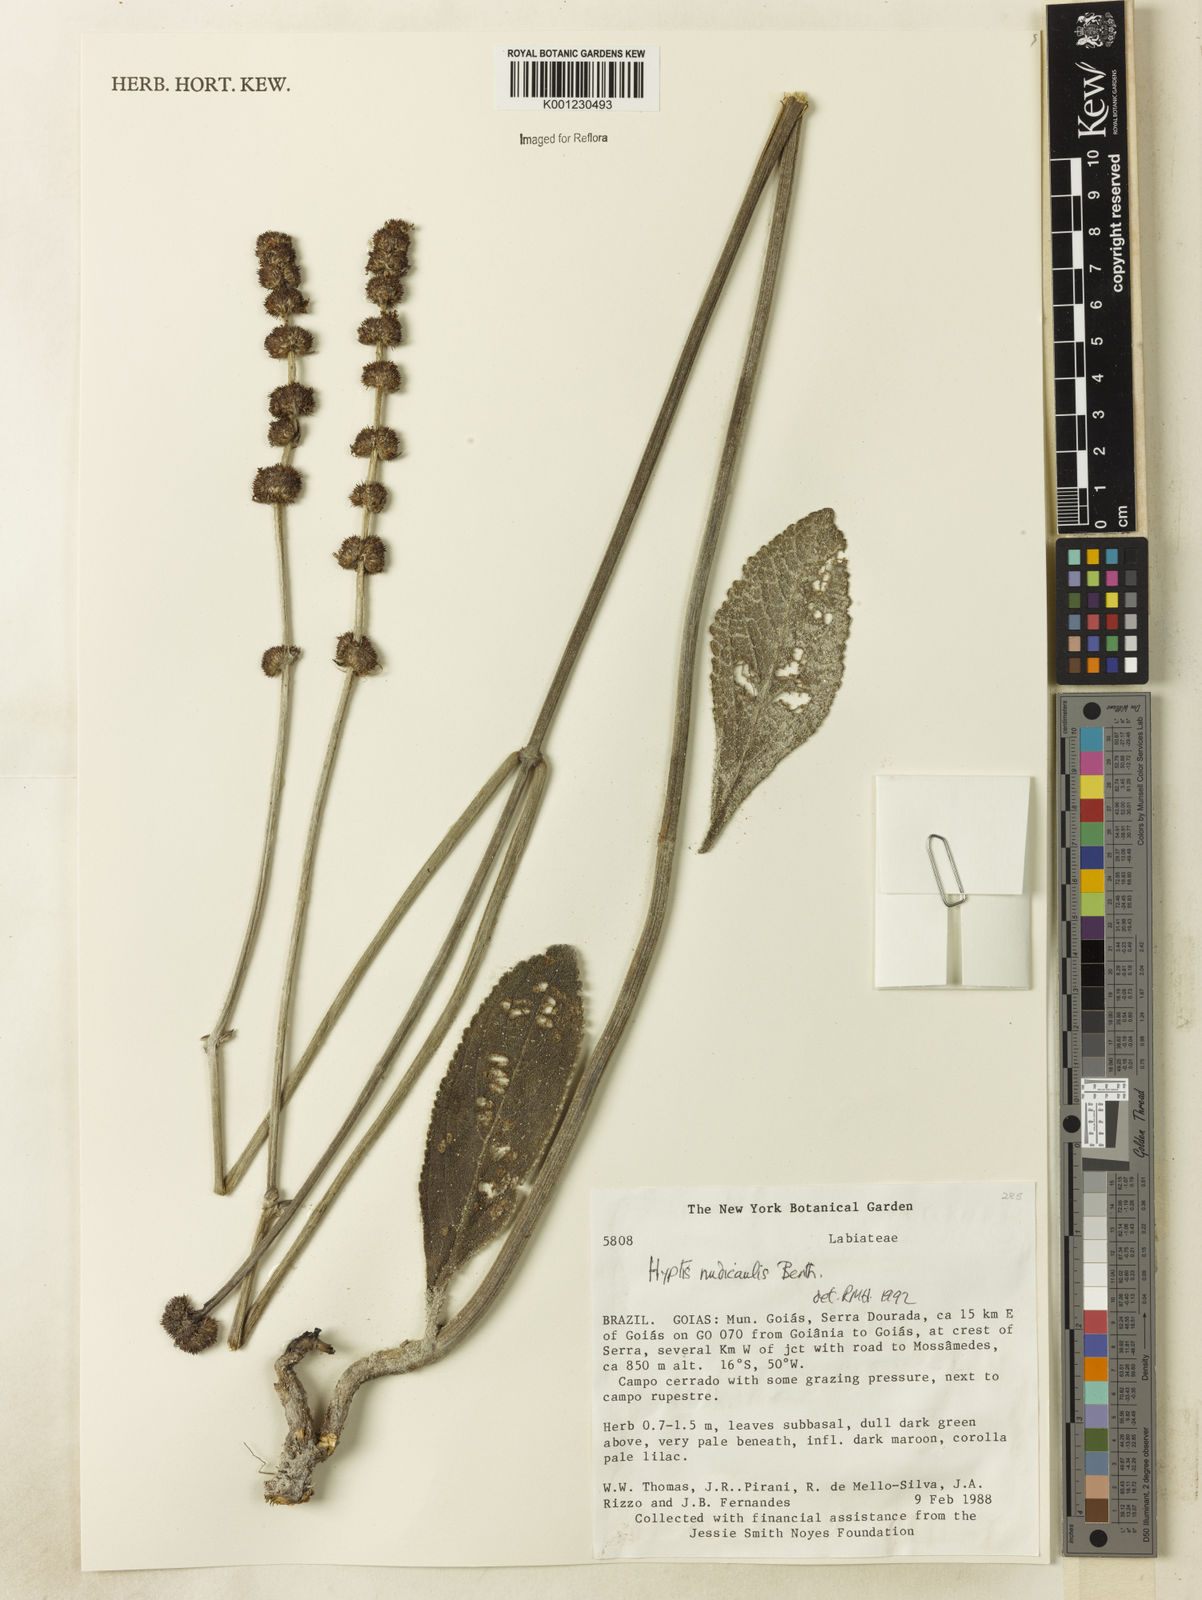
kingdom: Plantae
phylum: Tracheophyta
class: Magnoliopsida
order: Lamiales
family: Lamiaceae
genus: Hyptis
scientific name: Hyptis nudicaulis
